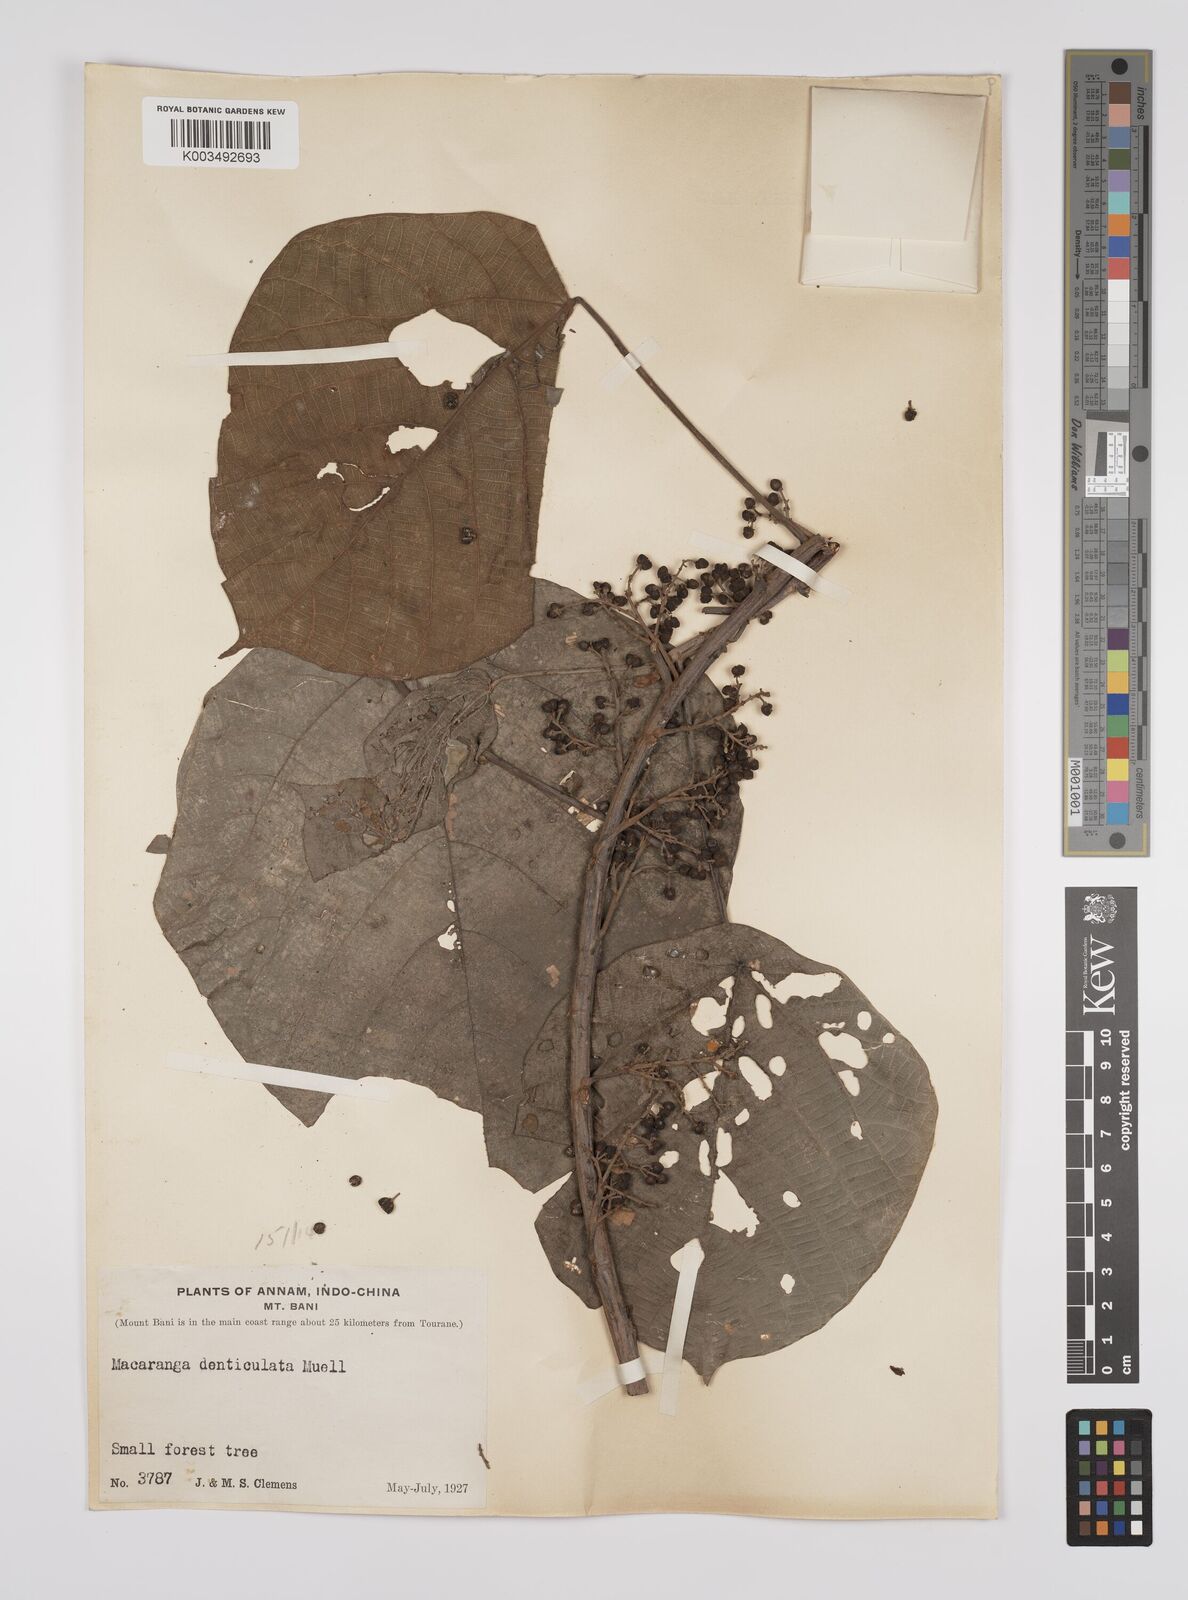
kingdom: Plantae
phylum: Tracheophyta
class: Magnoliopsida
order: Malpighiales
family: Euphorbiaceae
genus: Macaranga
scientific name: Macaranga denticulata
